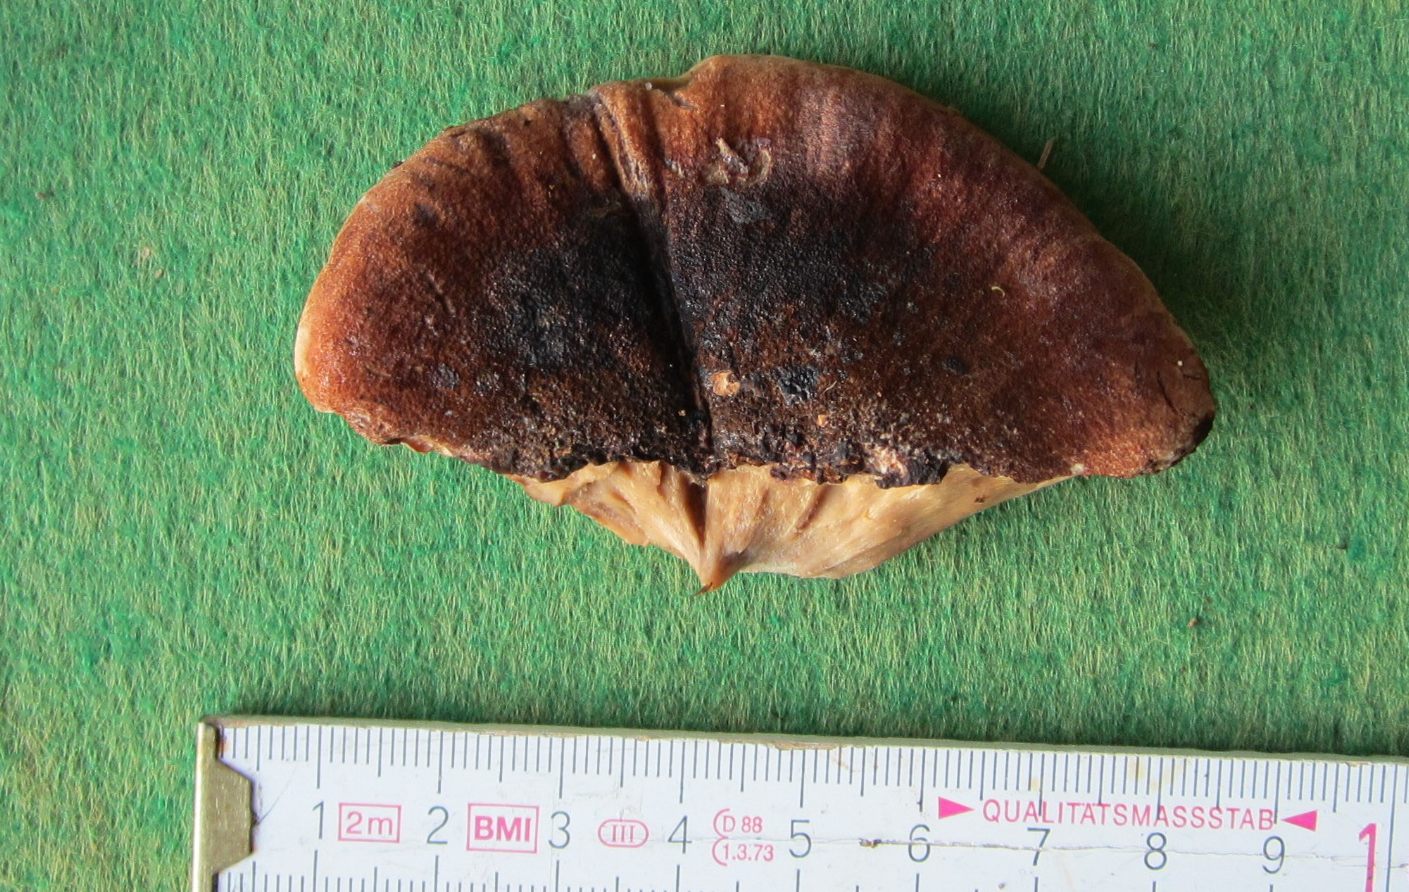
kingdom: Fungi
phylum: Basidiomycota
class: Agaricomycetes
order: Polyporales
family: Ischnodermataceae
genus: Ischnoderma
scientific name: Ischnoderma resinosum
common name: løv-tjæreporesvamp
